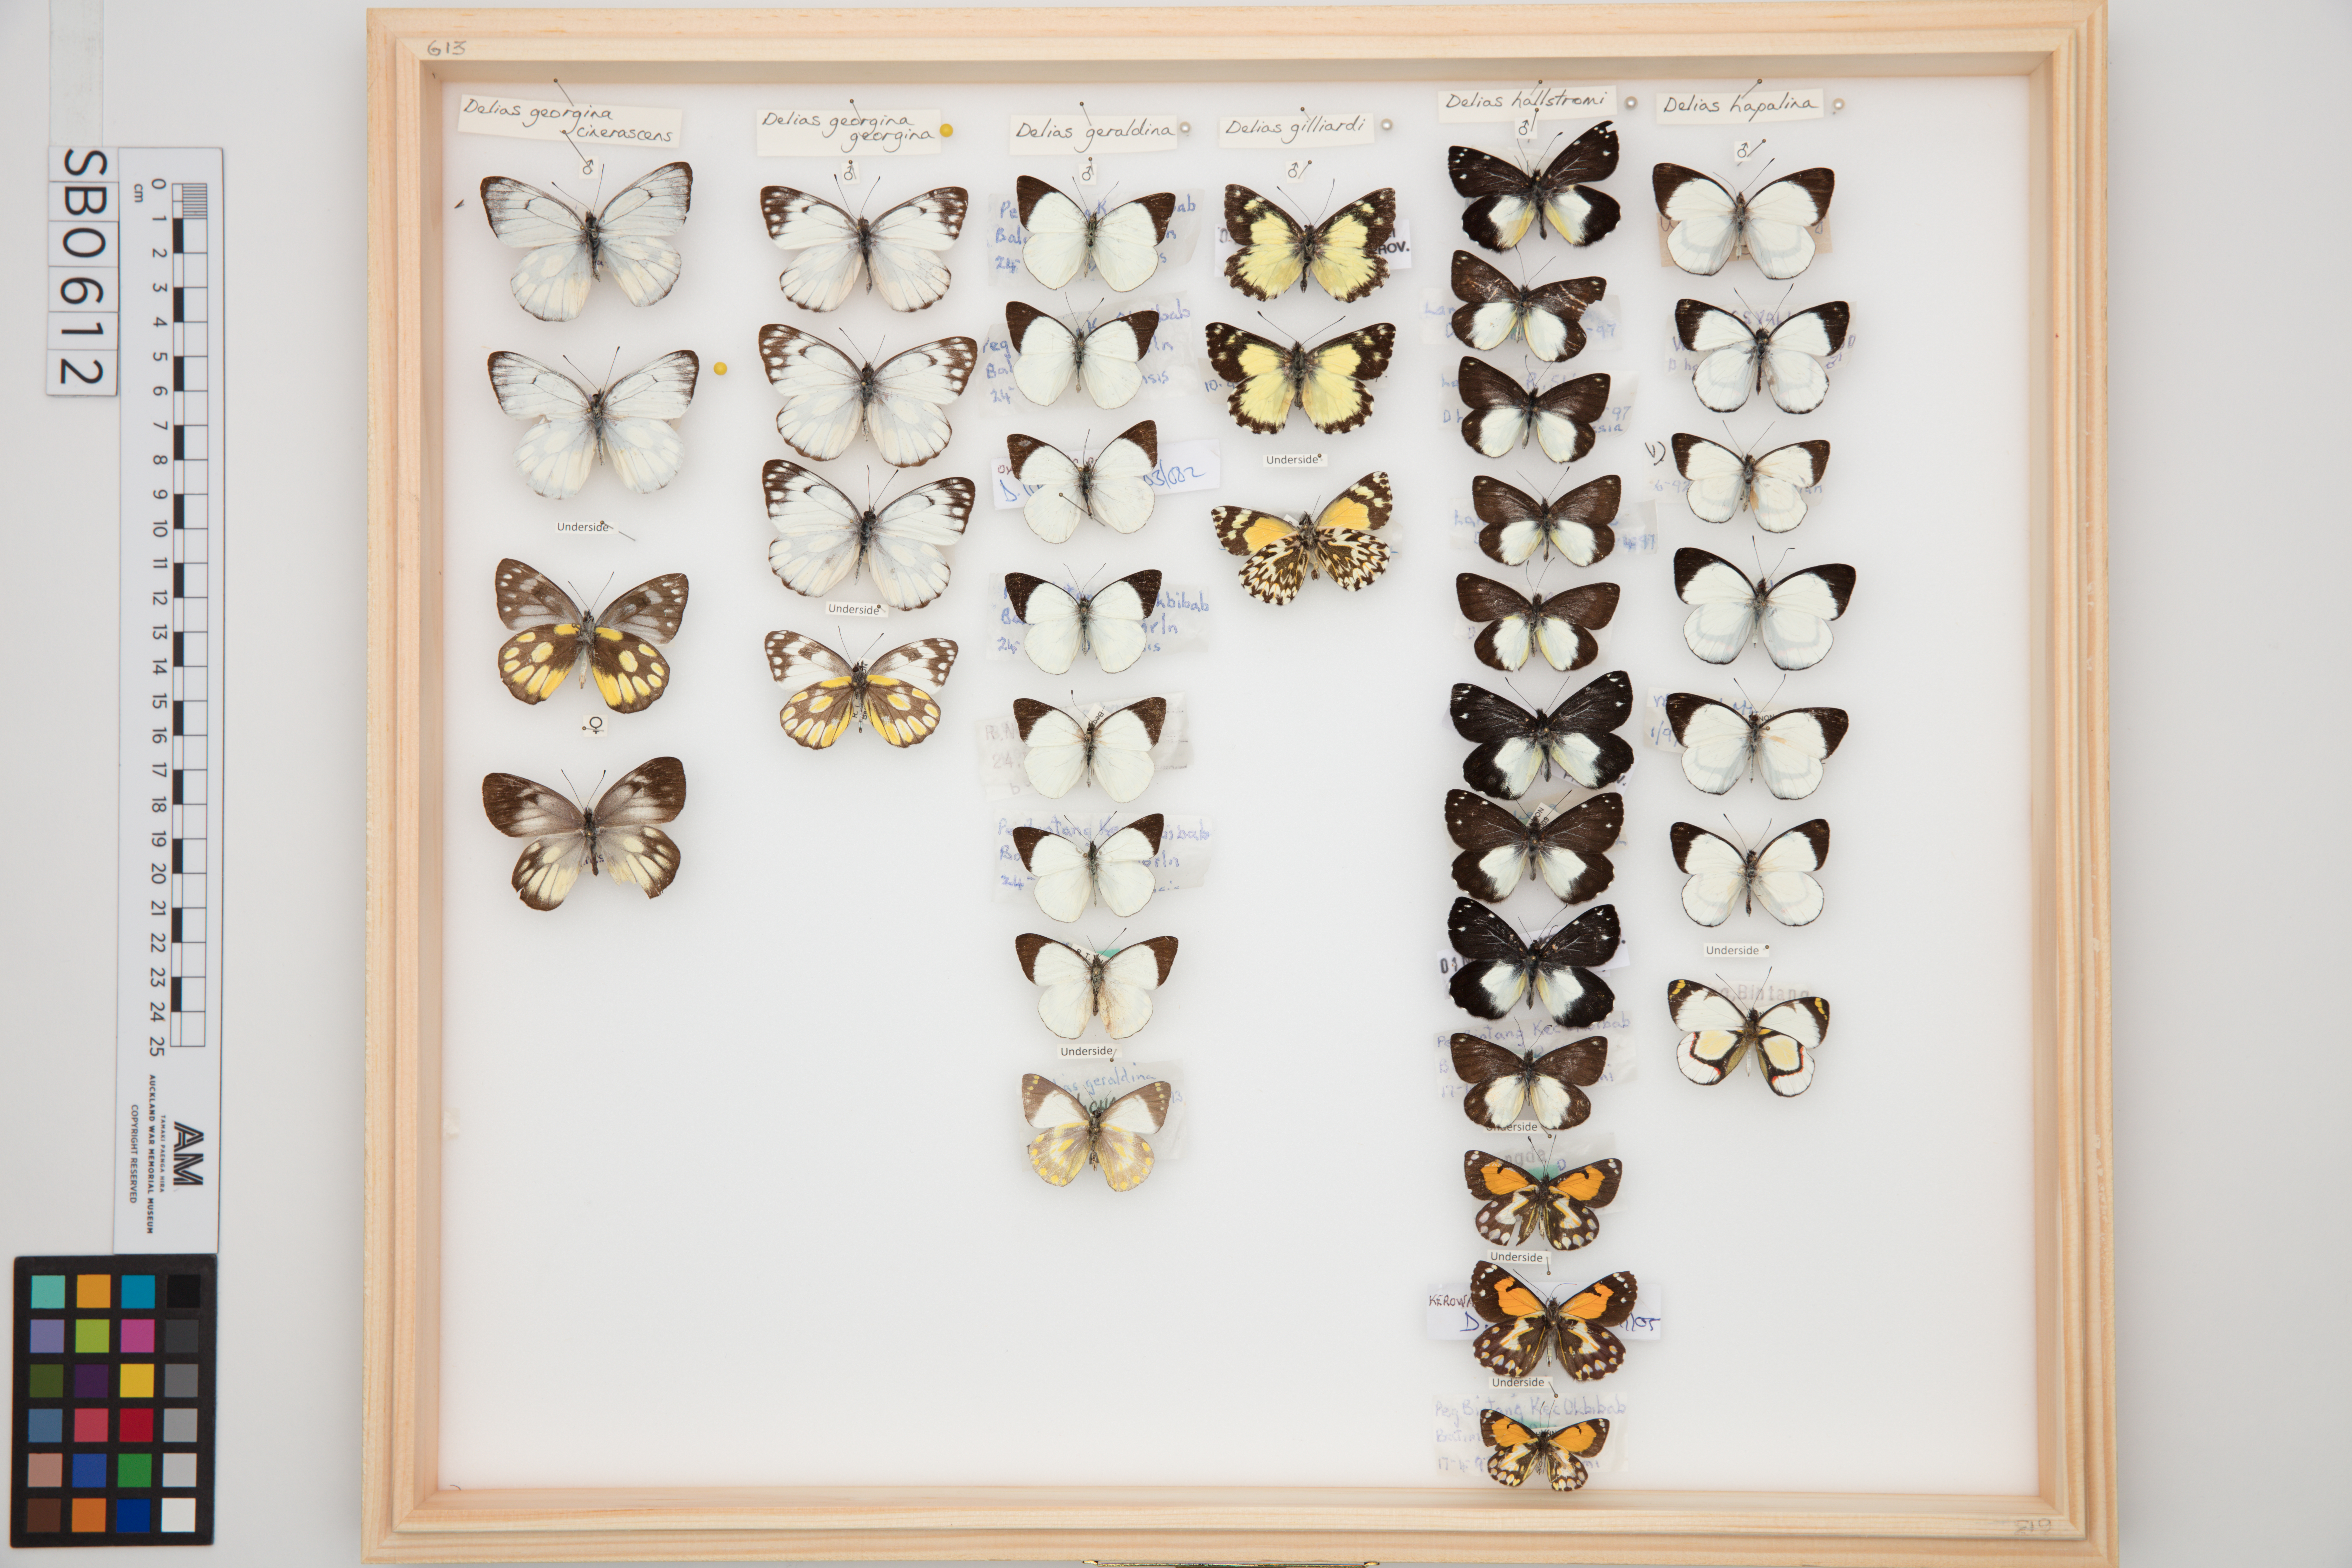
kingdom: Animalia
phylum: Arthropoda
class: Insecta
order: Lepidoptera
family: Pieridae
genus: Delias
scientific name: Delias geraldina
